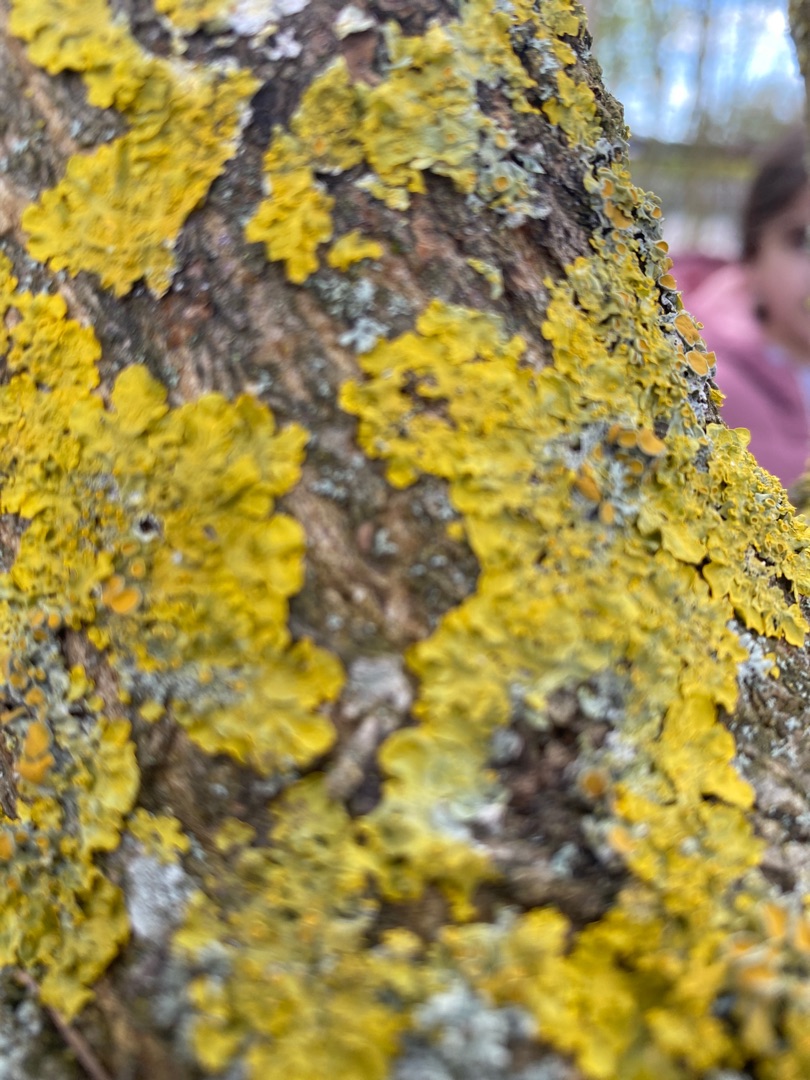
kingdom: Fungi
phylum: Ascomycota
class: Lecanoromycetes
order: Teloschistales
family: Teloschistaceae
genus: Xanthoria
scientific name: Xanthoria parietina
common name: Almindelig væggelav
